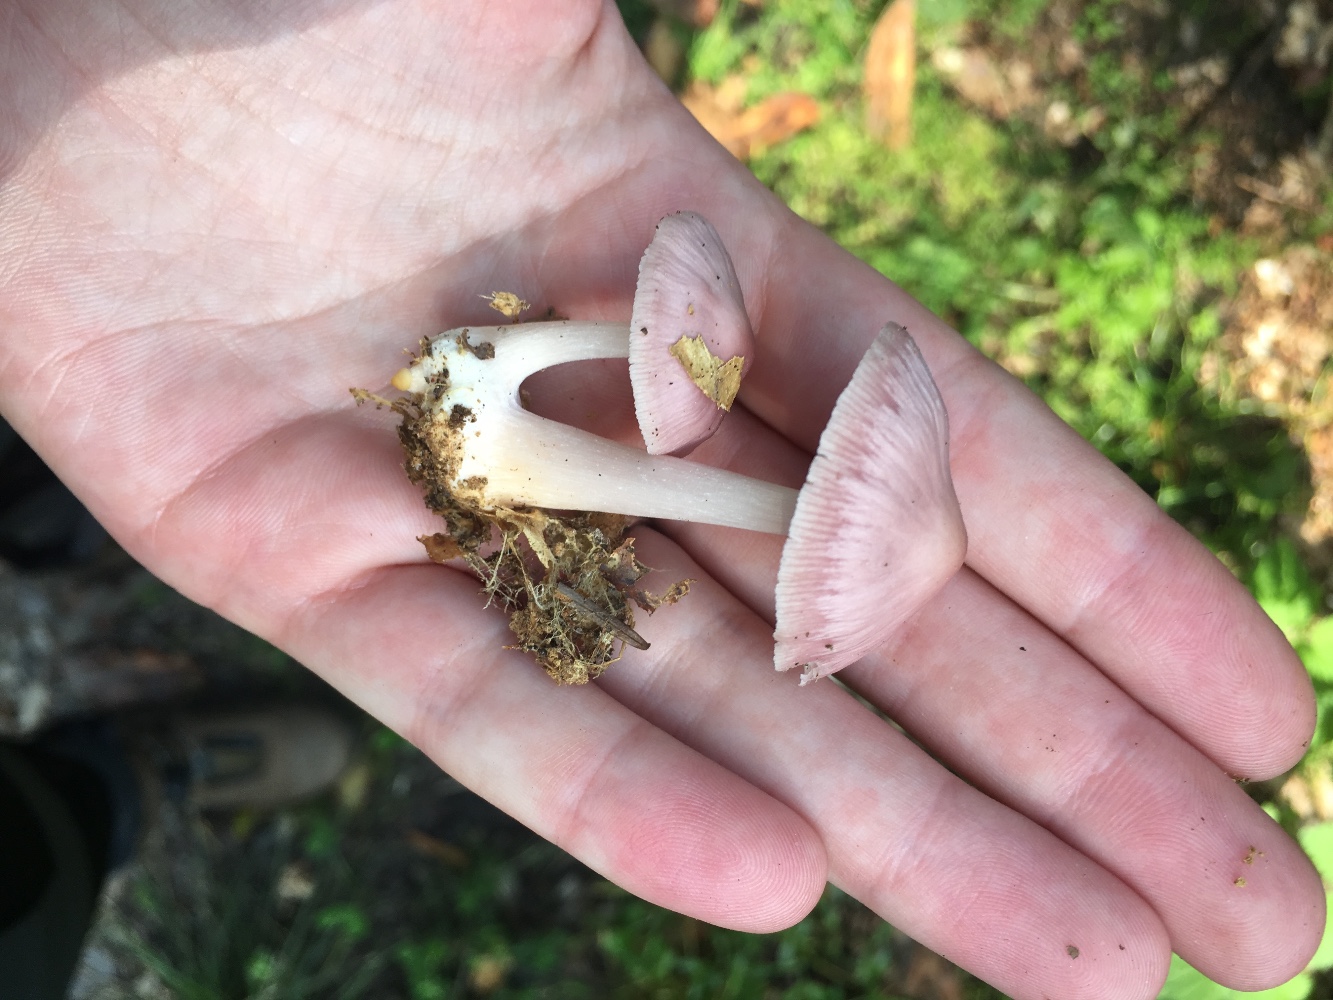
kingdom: Fungi
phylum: Basidiomycota
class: Agaricomycetes
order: Agaricales
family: Mycenaceae
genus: Mycena
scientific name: Mycena rosea
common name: rosa huesvamp
